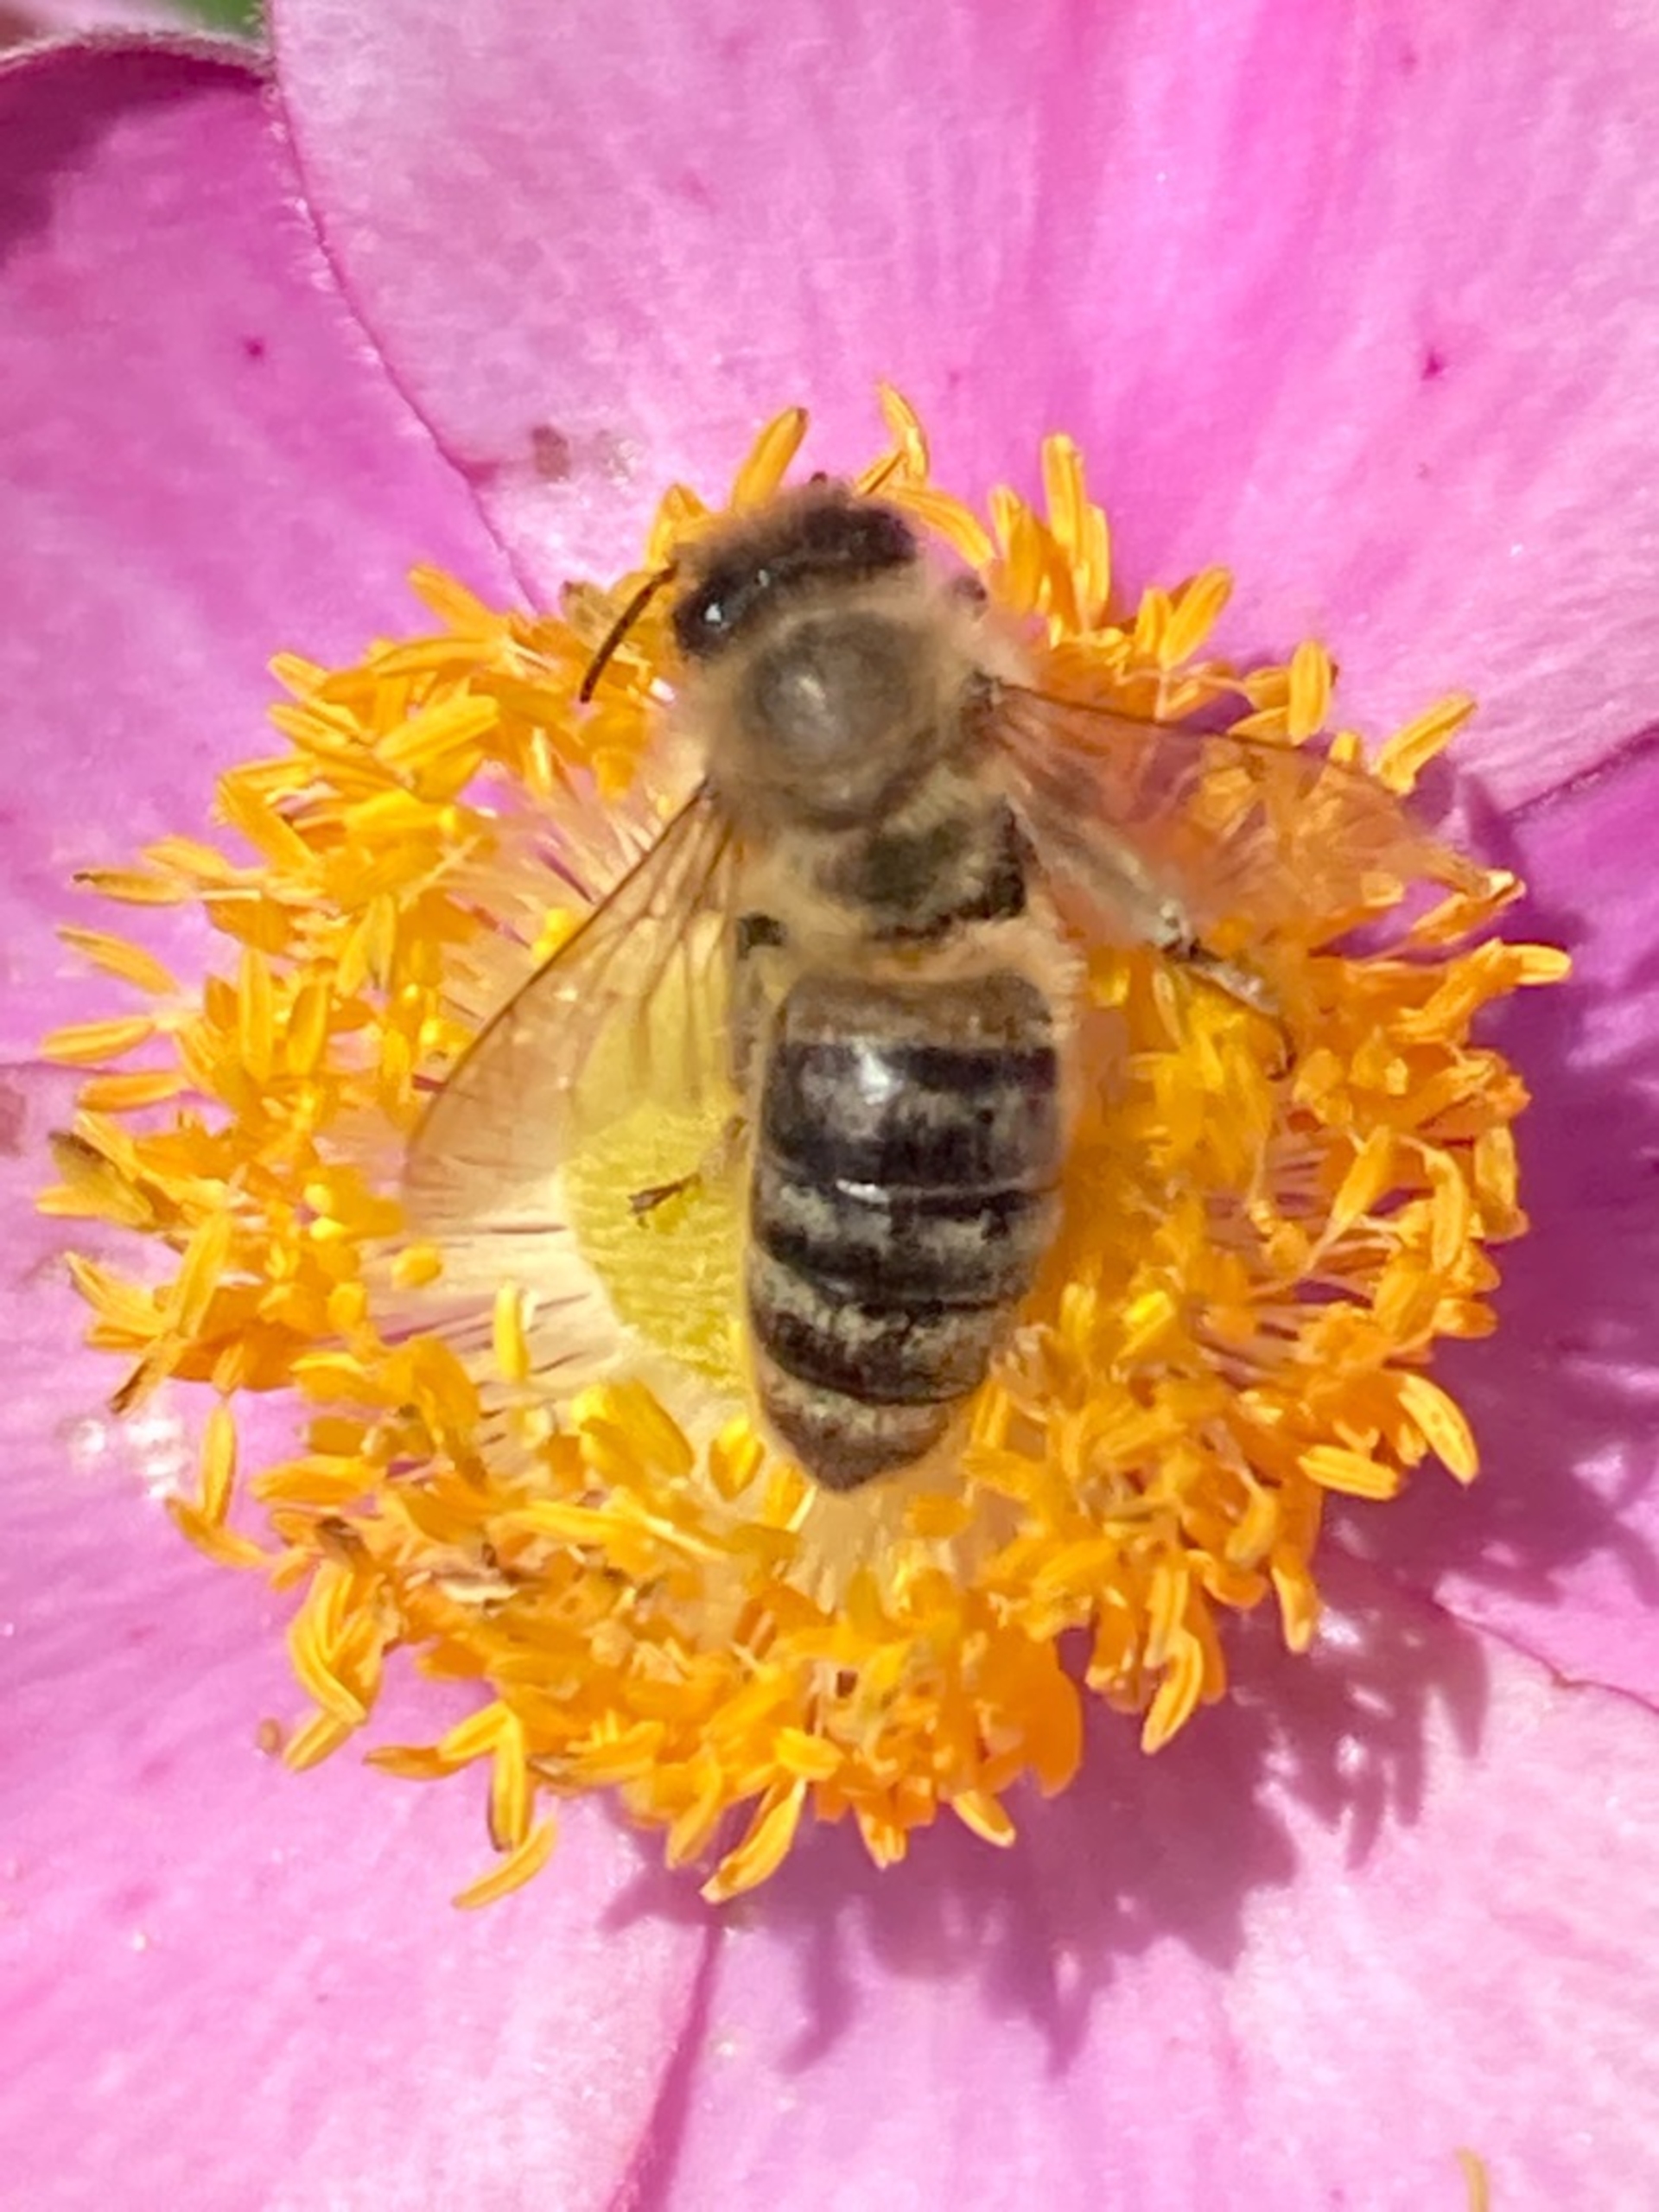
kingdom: Animalia
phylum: Arthropoda
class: Insecta
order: Hymenoptera
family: Apidae
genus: Apis
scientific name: Apis mellifera
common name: Honningbi
